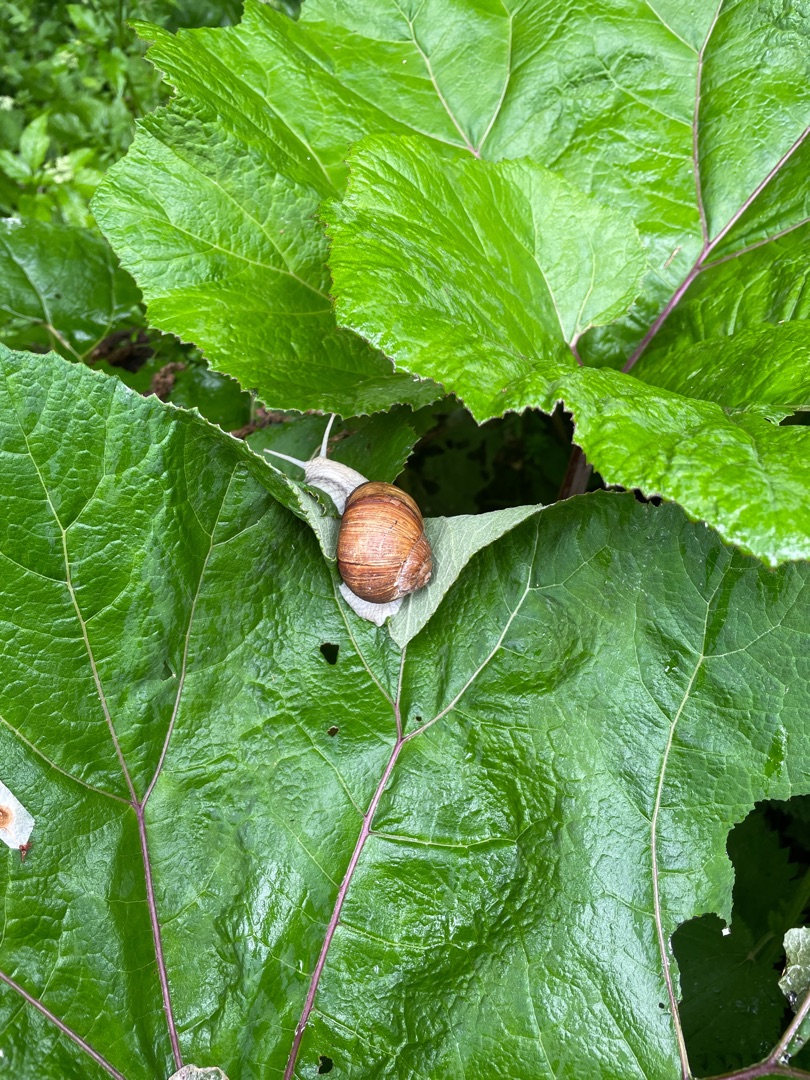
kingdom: Animalia
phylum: Mollusca
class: Gastropoda
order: Stylommatophora
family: Helicidae
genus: Helix
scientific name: Helix pomatia
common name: Vinbjergsnegl
